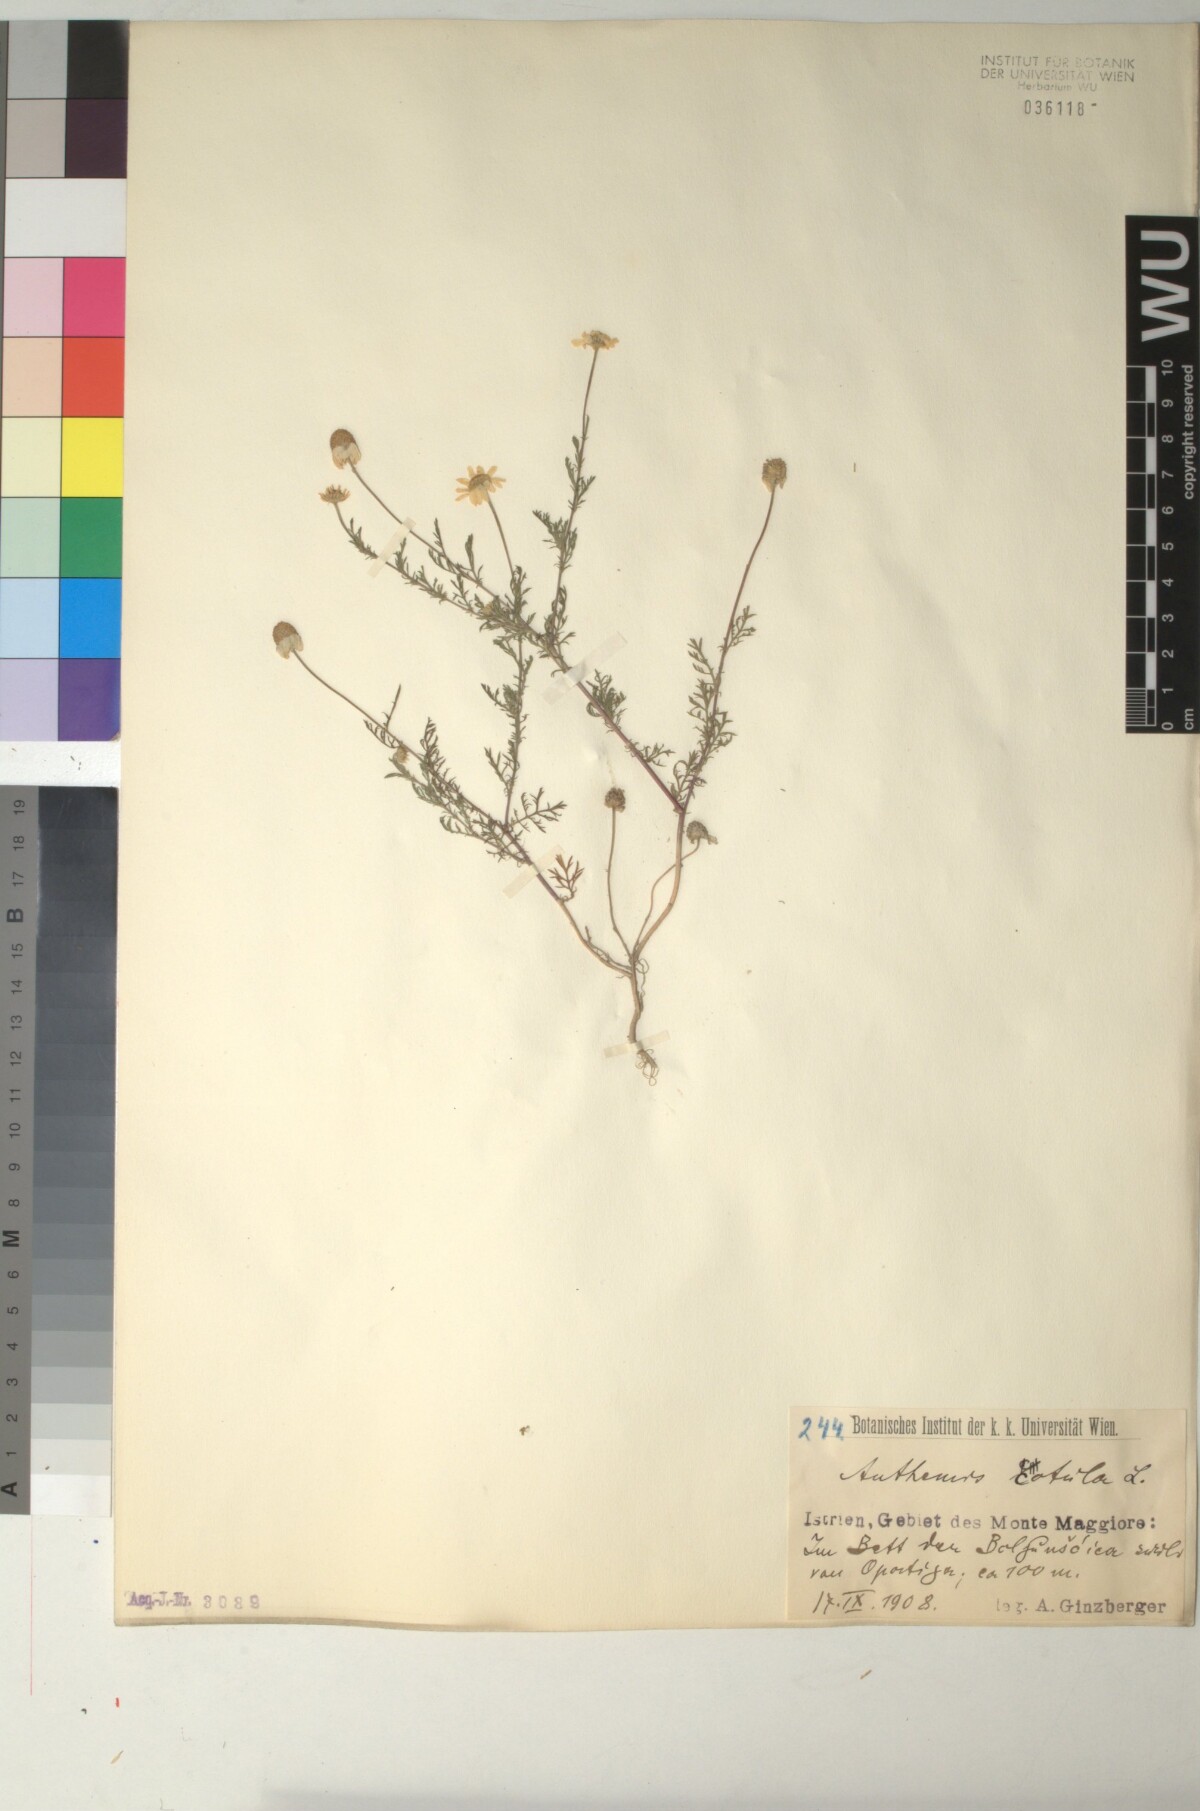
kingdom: Plantae
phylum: Tracheophyta
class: Magnoliopsida
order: Asterales
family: Asteraceae
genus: Anthemis
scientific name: Anthemis cotula
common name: Stinking chamomile
